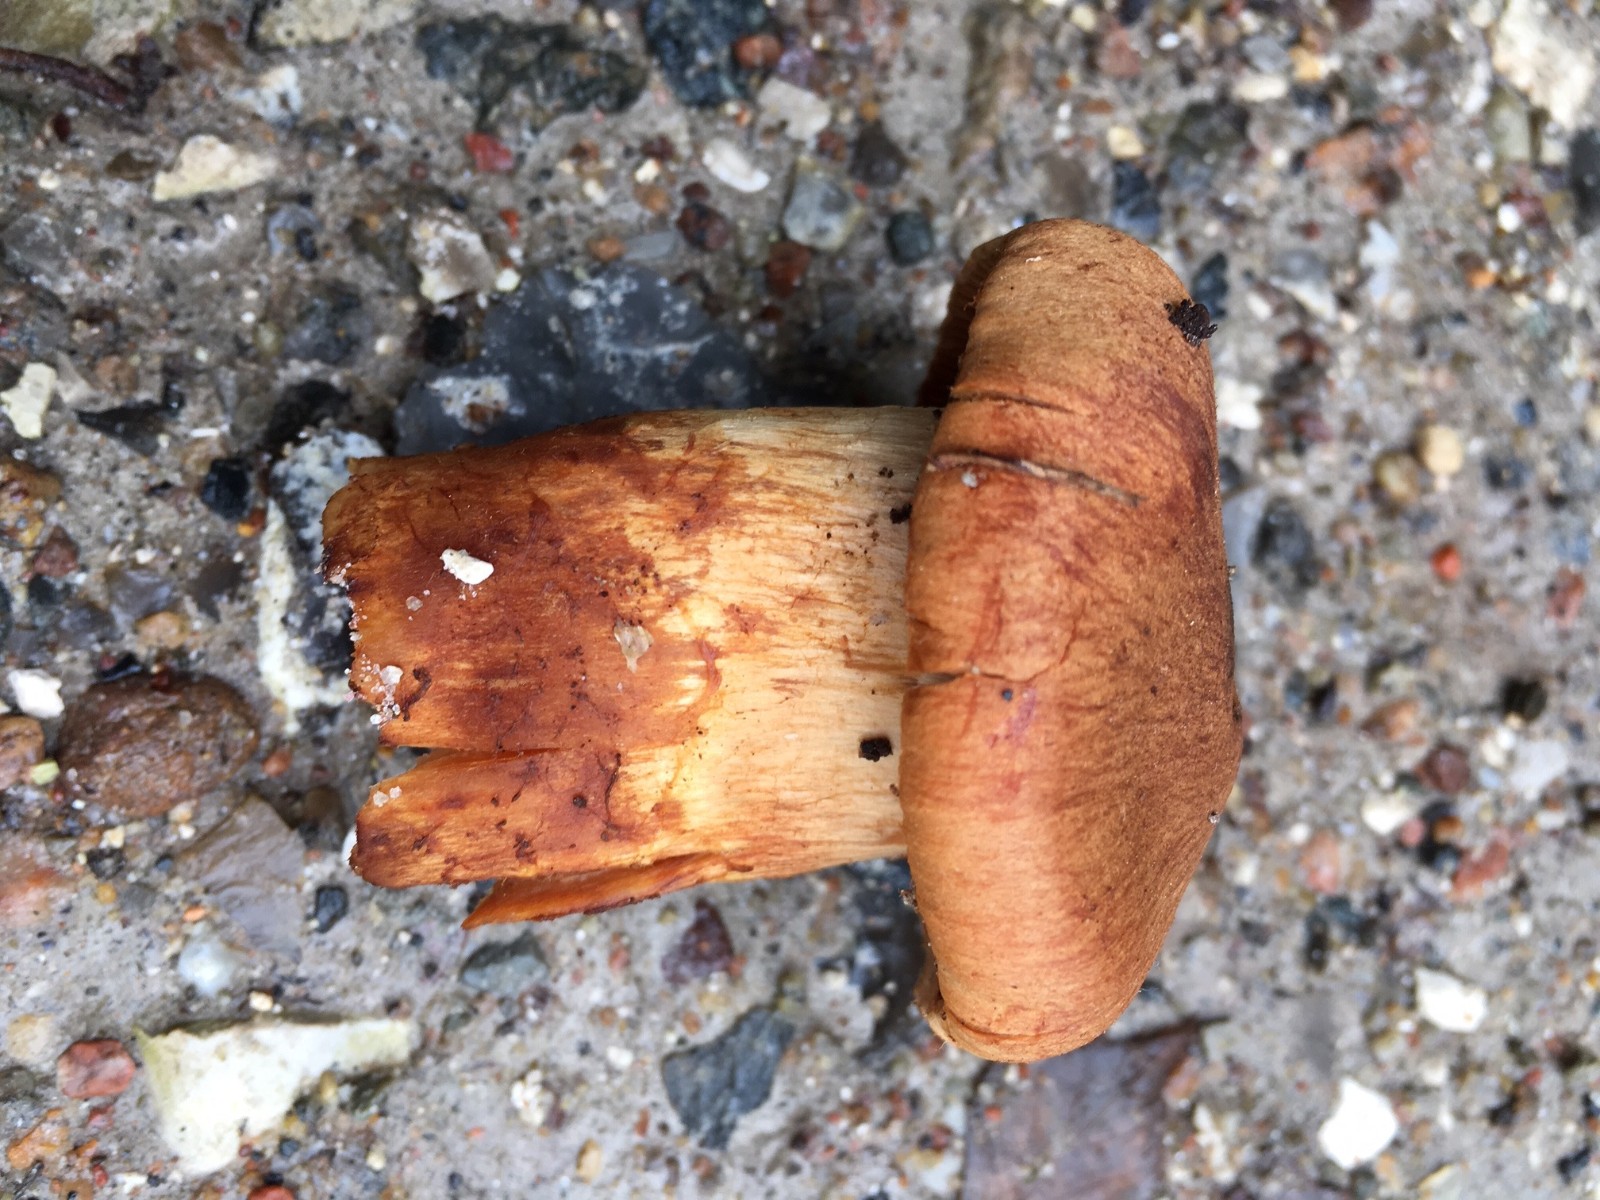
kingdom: Fungi
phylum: Basidiomycota
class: Agaricomycetes
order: Agaricales
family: Cortinariaceae
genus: Cortinarius
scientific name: Cortinarius rubellus
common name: puklet gift-slørhat
